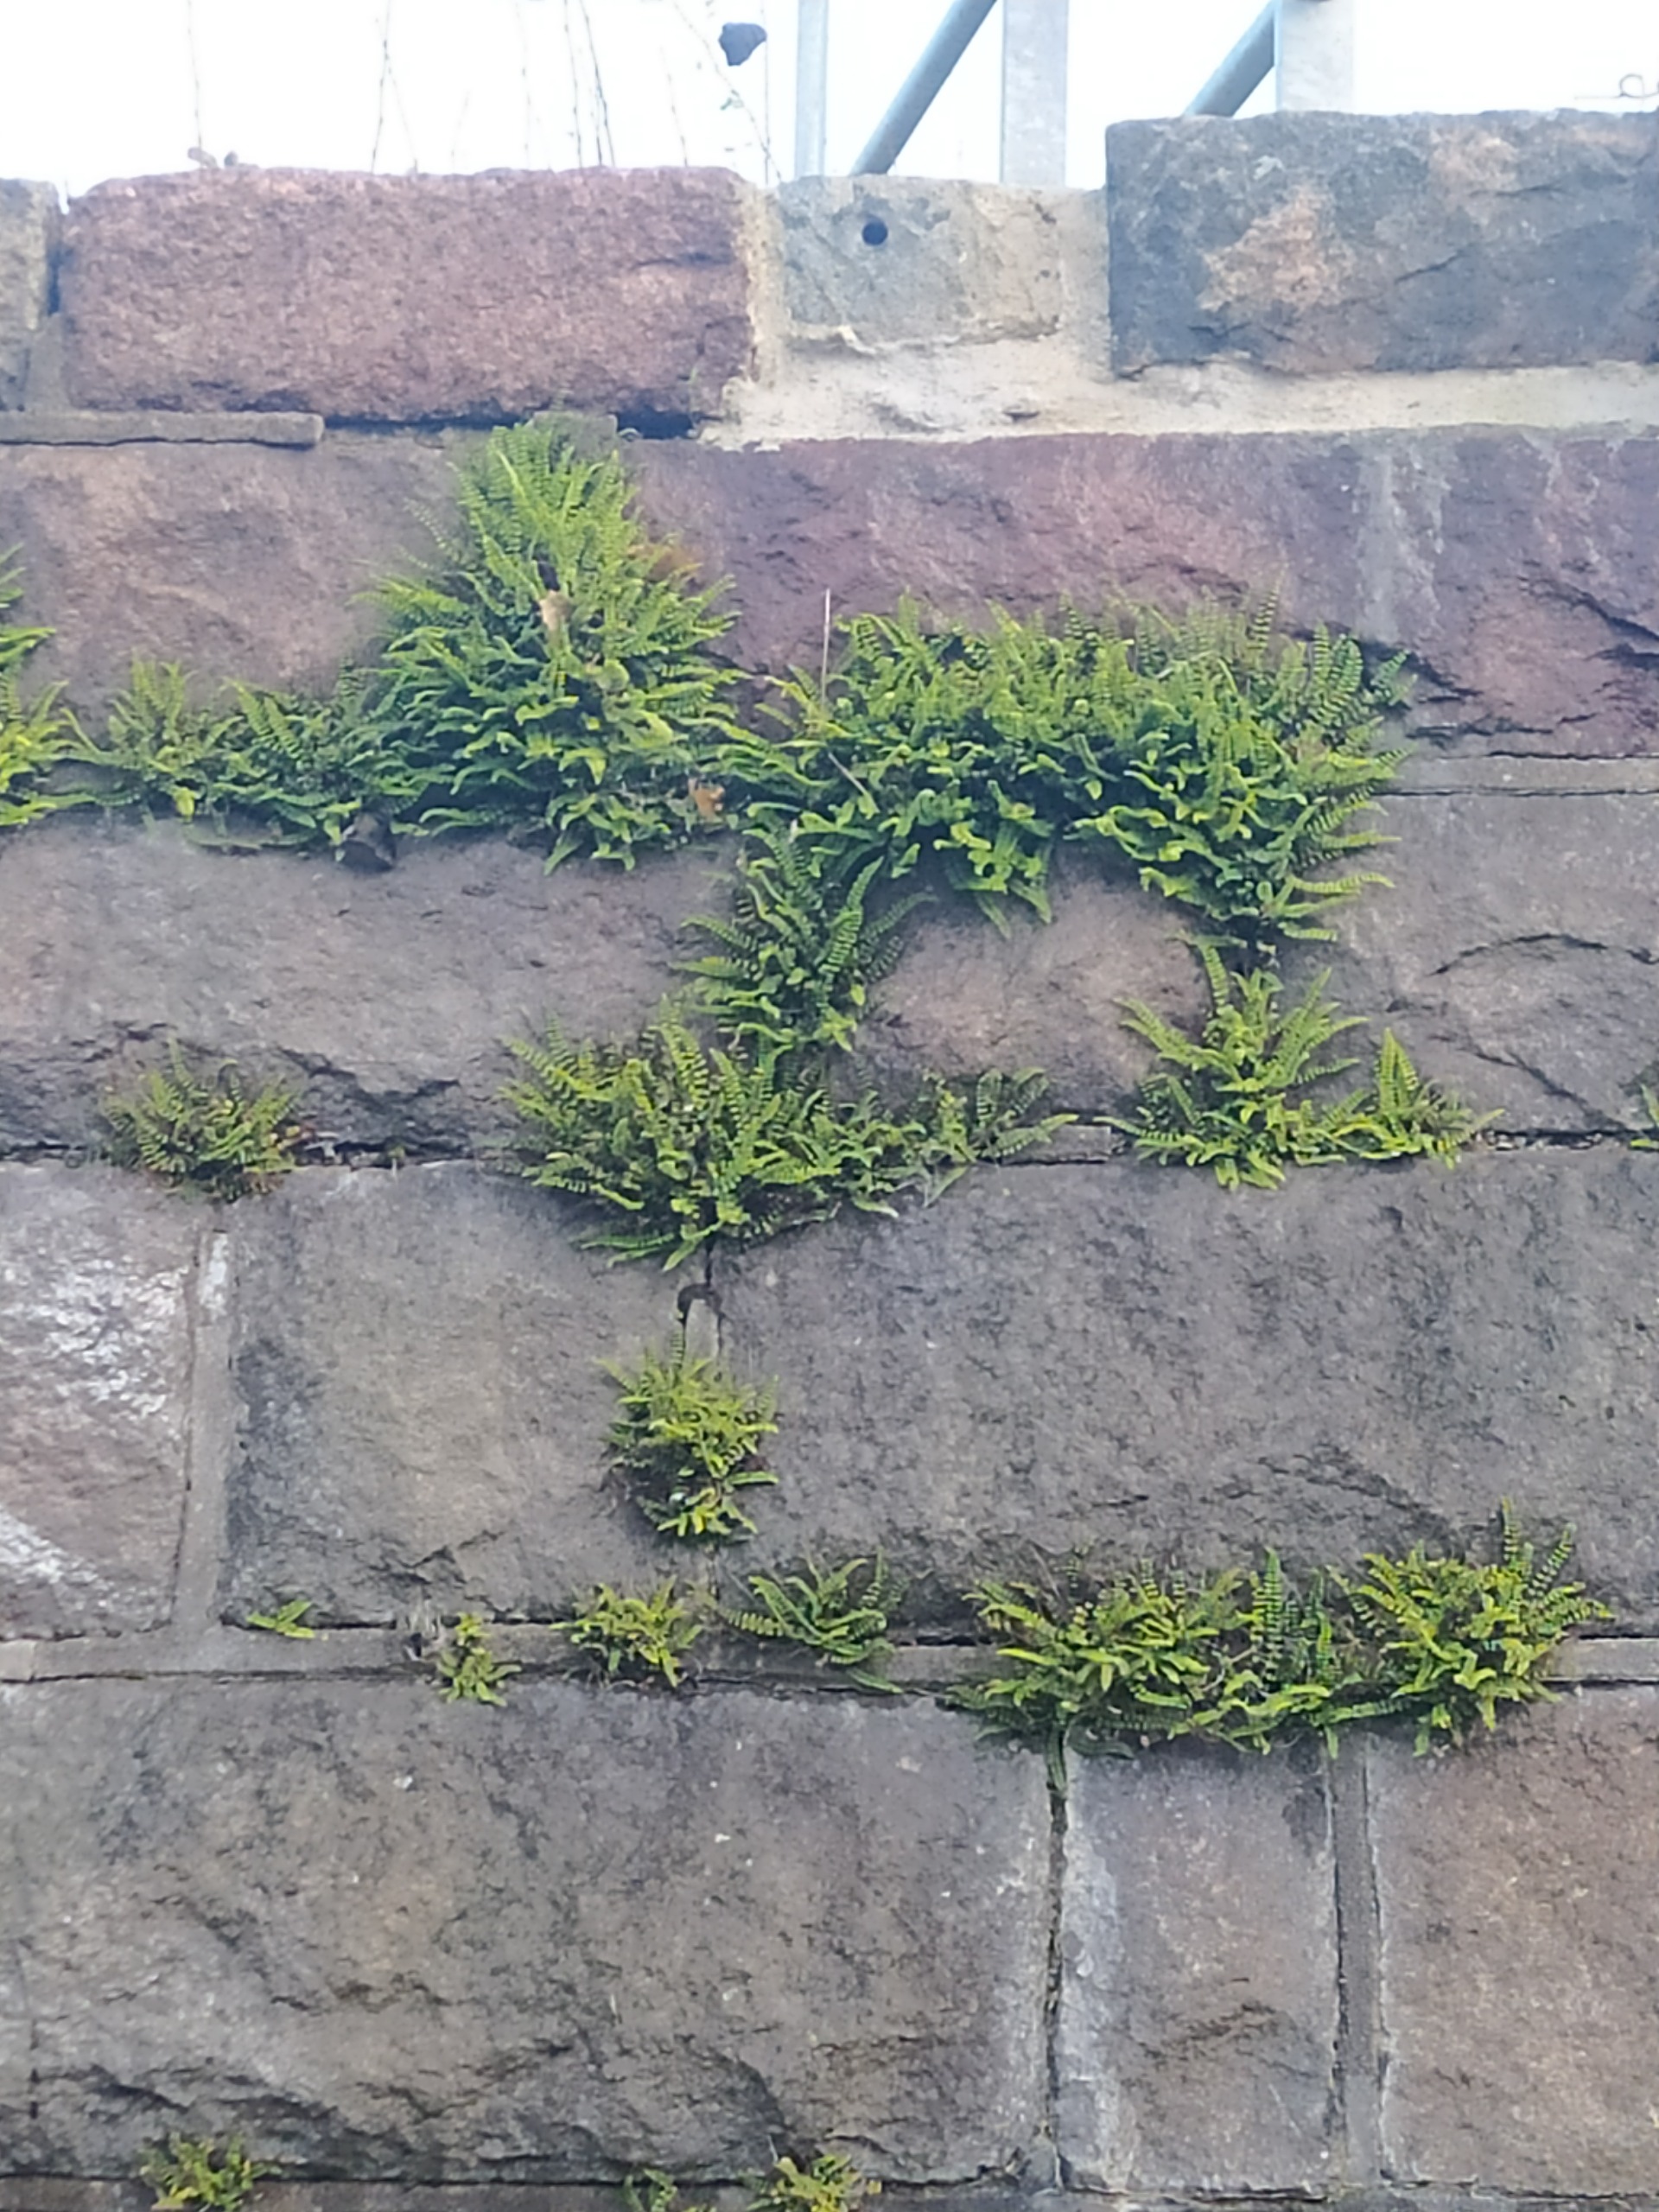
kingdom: Plantae
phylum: Tracheophyta
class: Polypodiopsida
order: Polypodiales
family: Aspleniaceae
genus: Asplenium
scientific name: Asplenium trichomanes
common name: Rundfinnet radeløv
